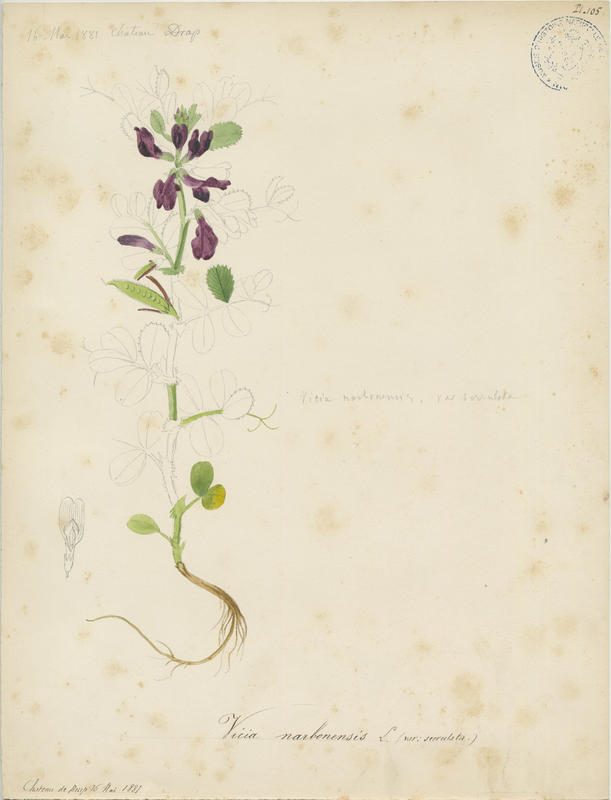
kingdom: Plantae
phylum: Tracheophyta
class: Magnoliopsida
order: Fabales
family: Fabaceae
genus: Vicia
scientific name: Vicia narbonensis
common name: Narbonne vetch
